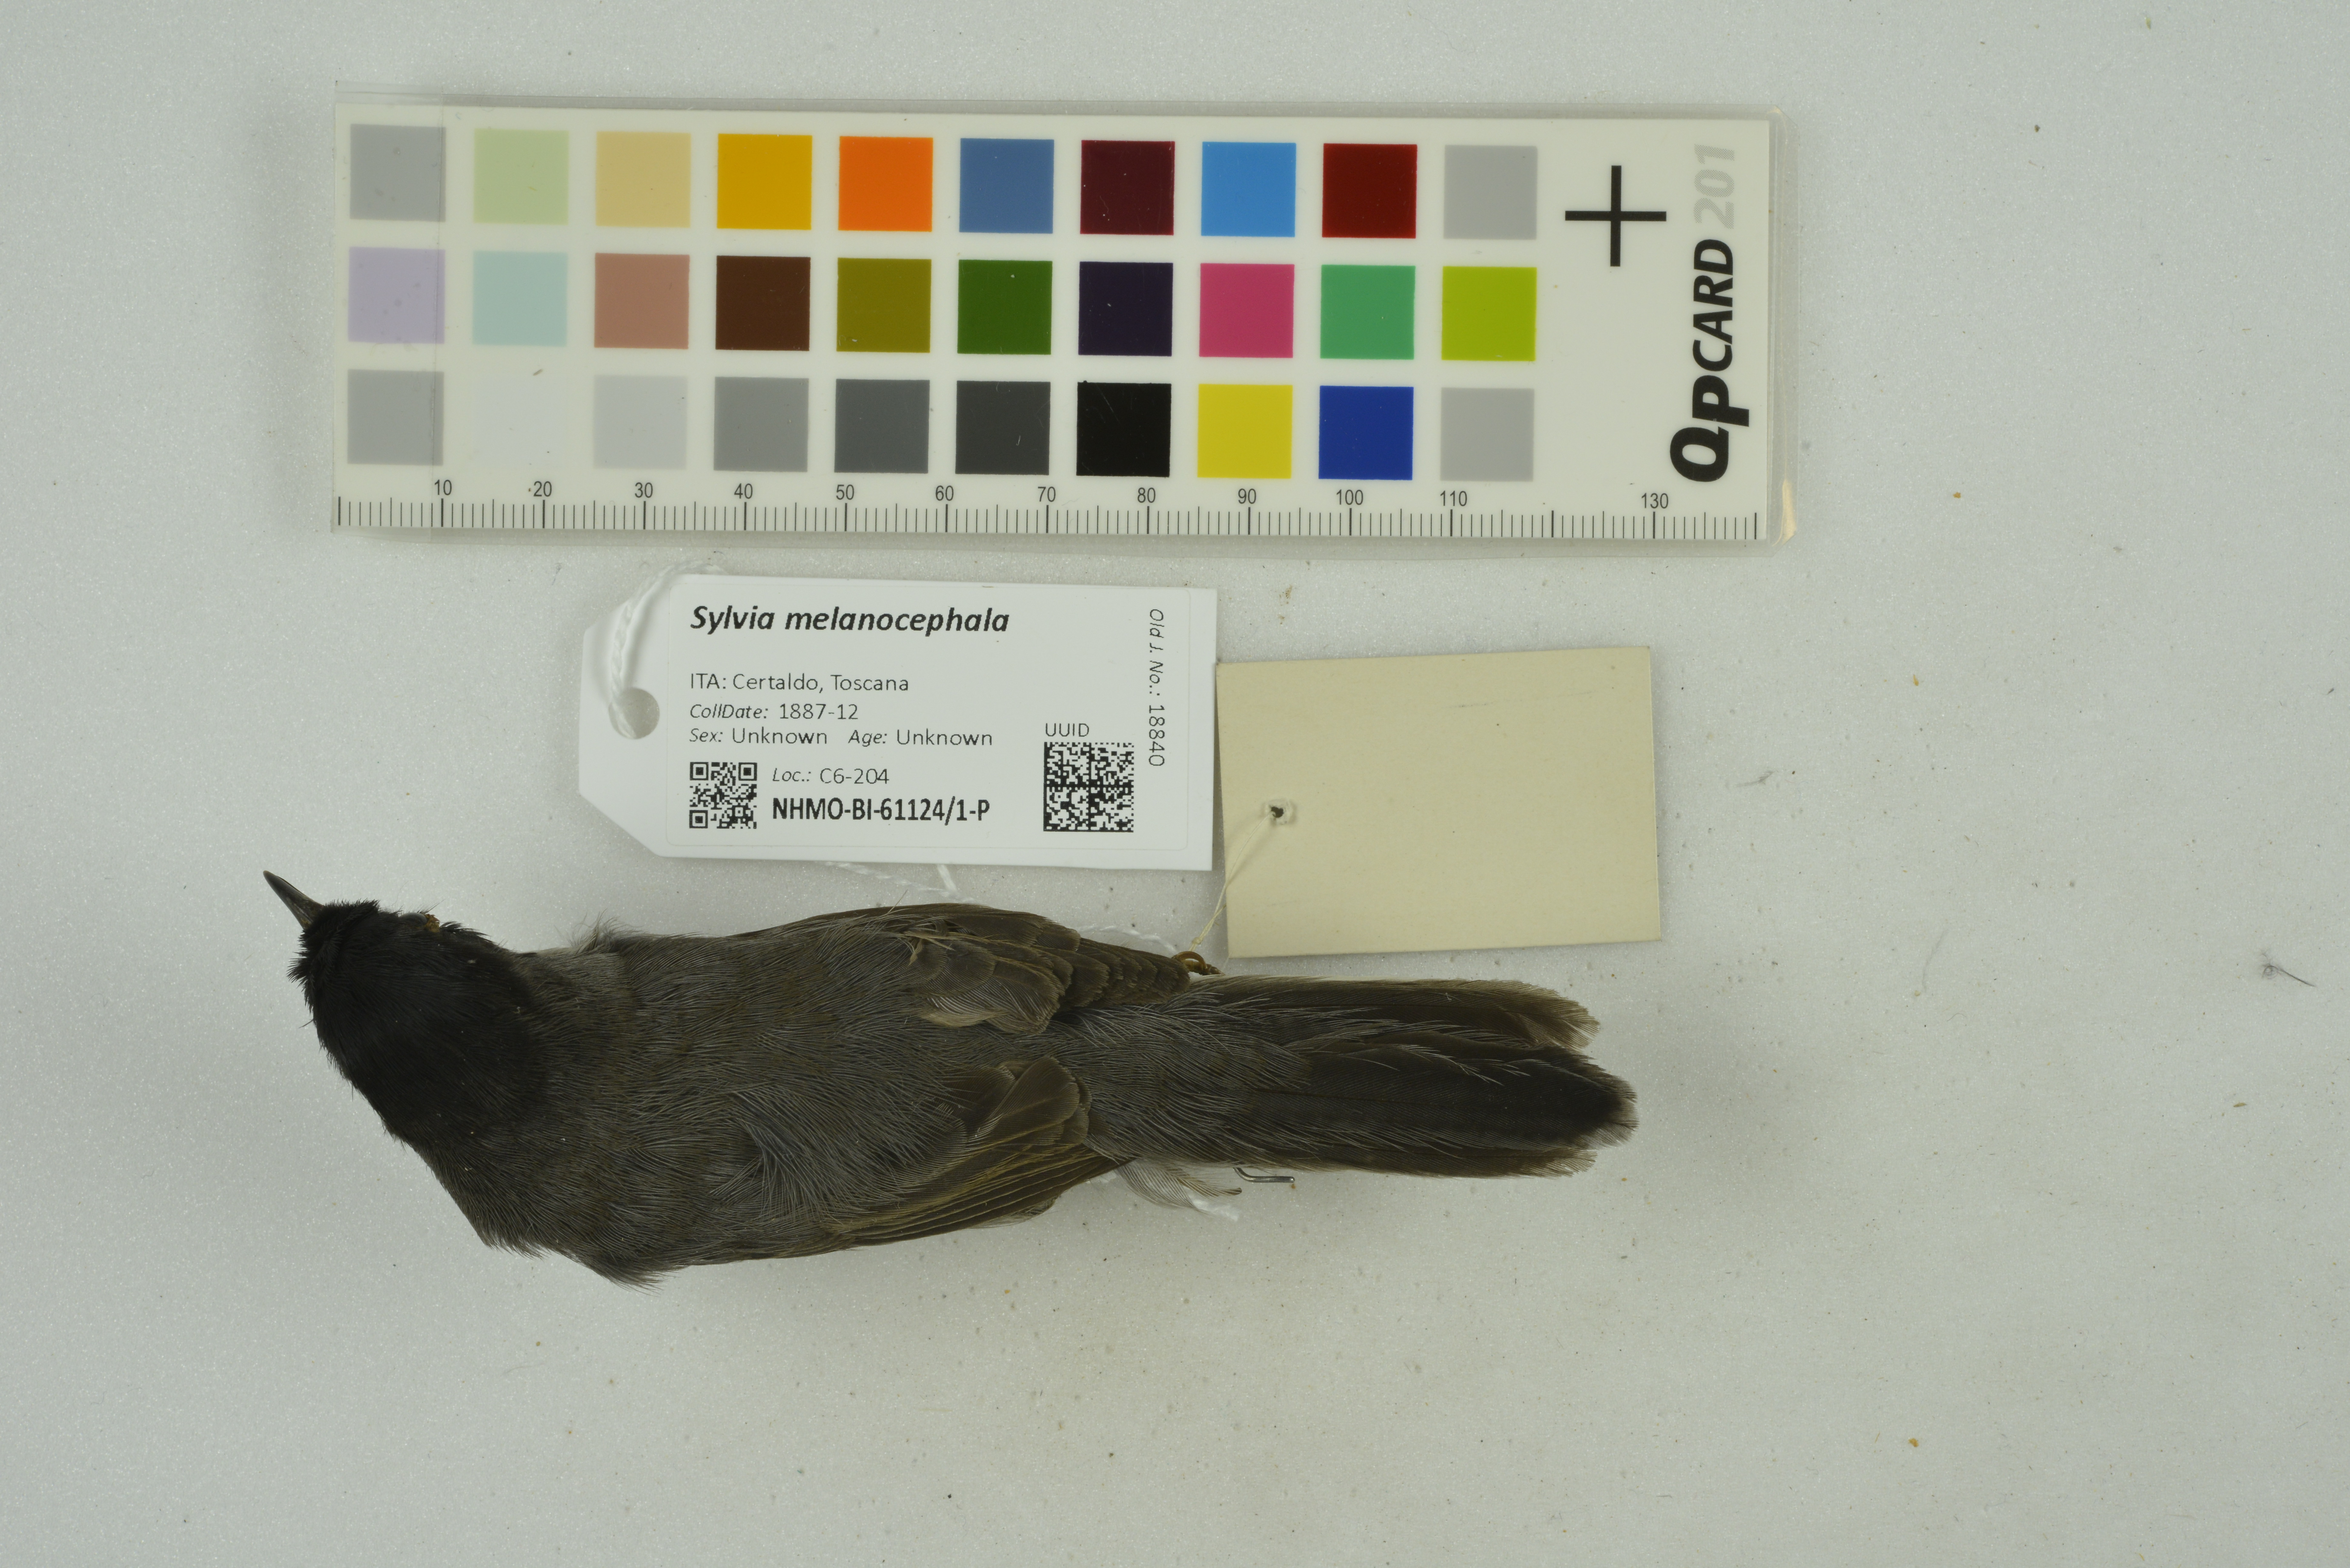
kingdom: Animalia
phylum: Chordata
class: Aves
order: Passeriformes
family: Sylviidae
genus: Curruca
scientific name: Curruca melanocephala
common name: Sardinian warbler
